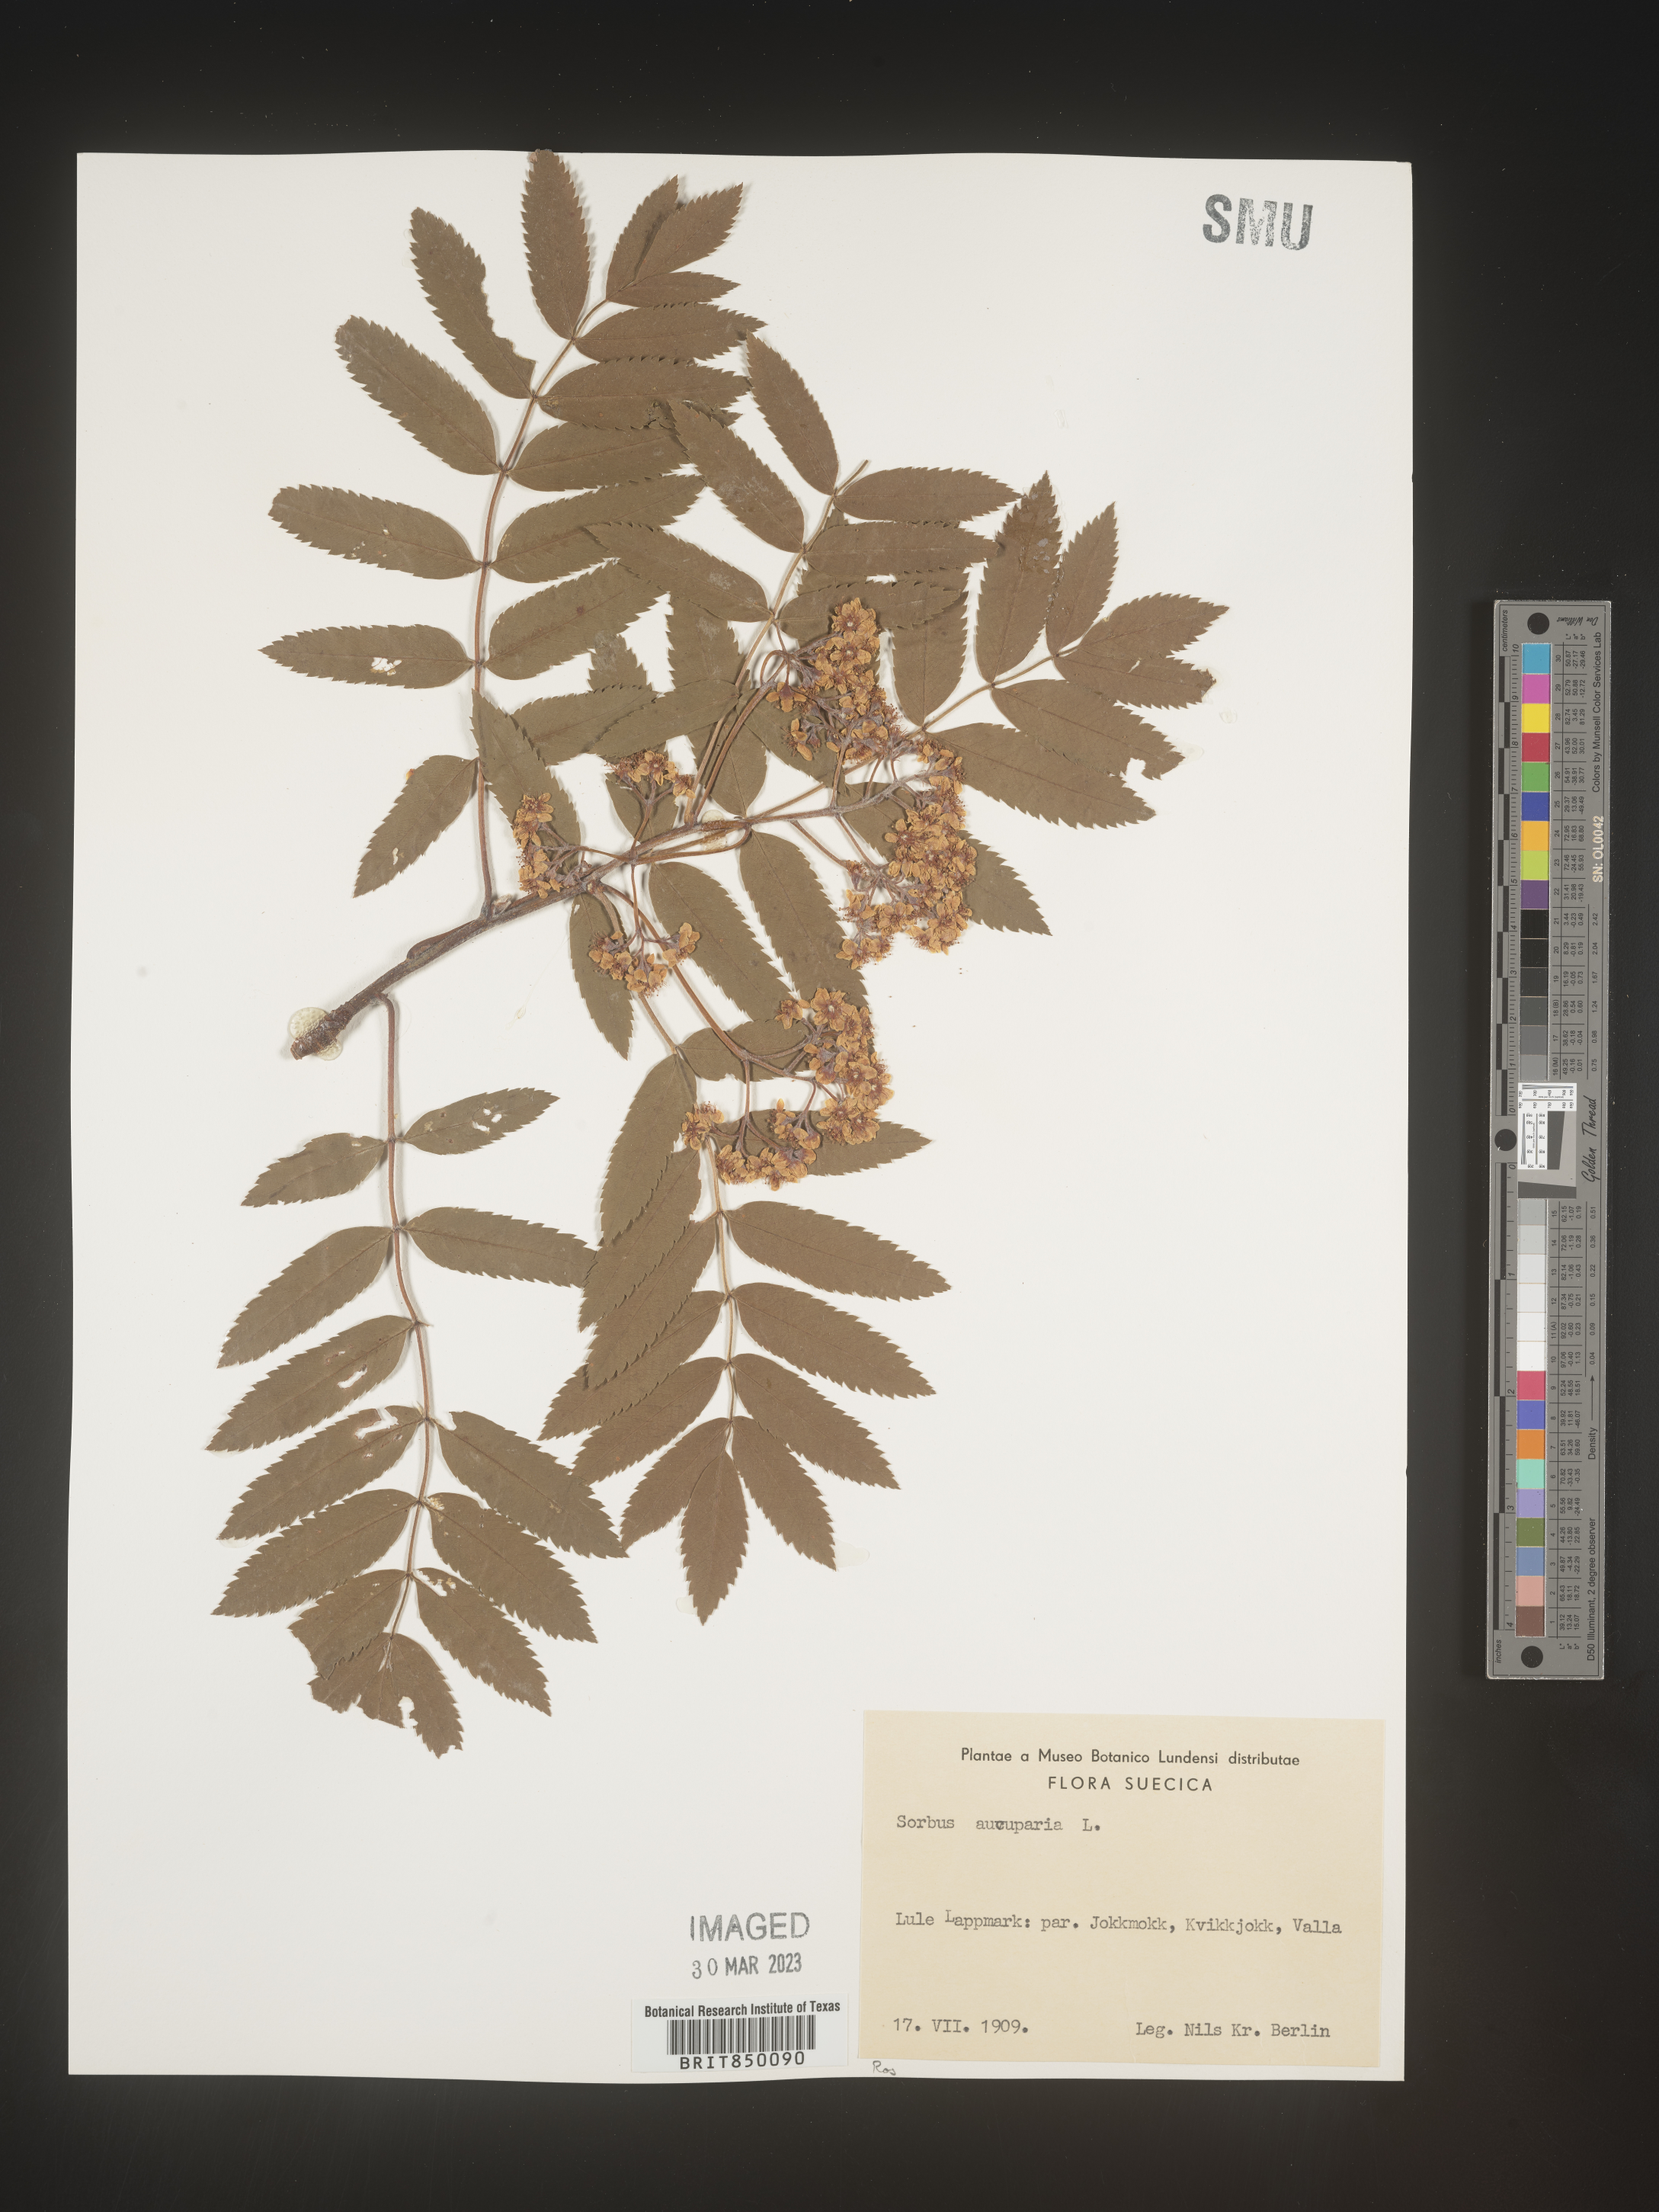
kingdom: Plantae
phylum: Tracheophyta
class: Magnoliopsida
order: Rosales
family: Rosaceae
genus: Sorbus
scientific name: Sorbus
